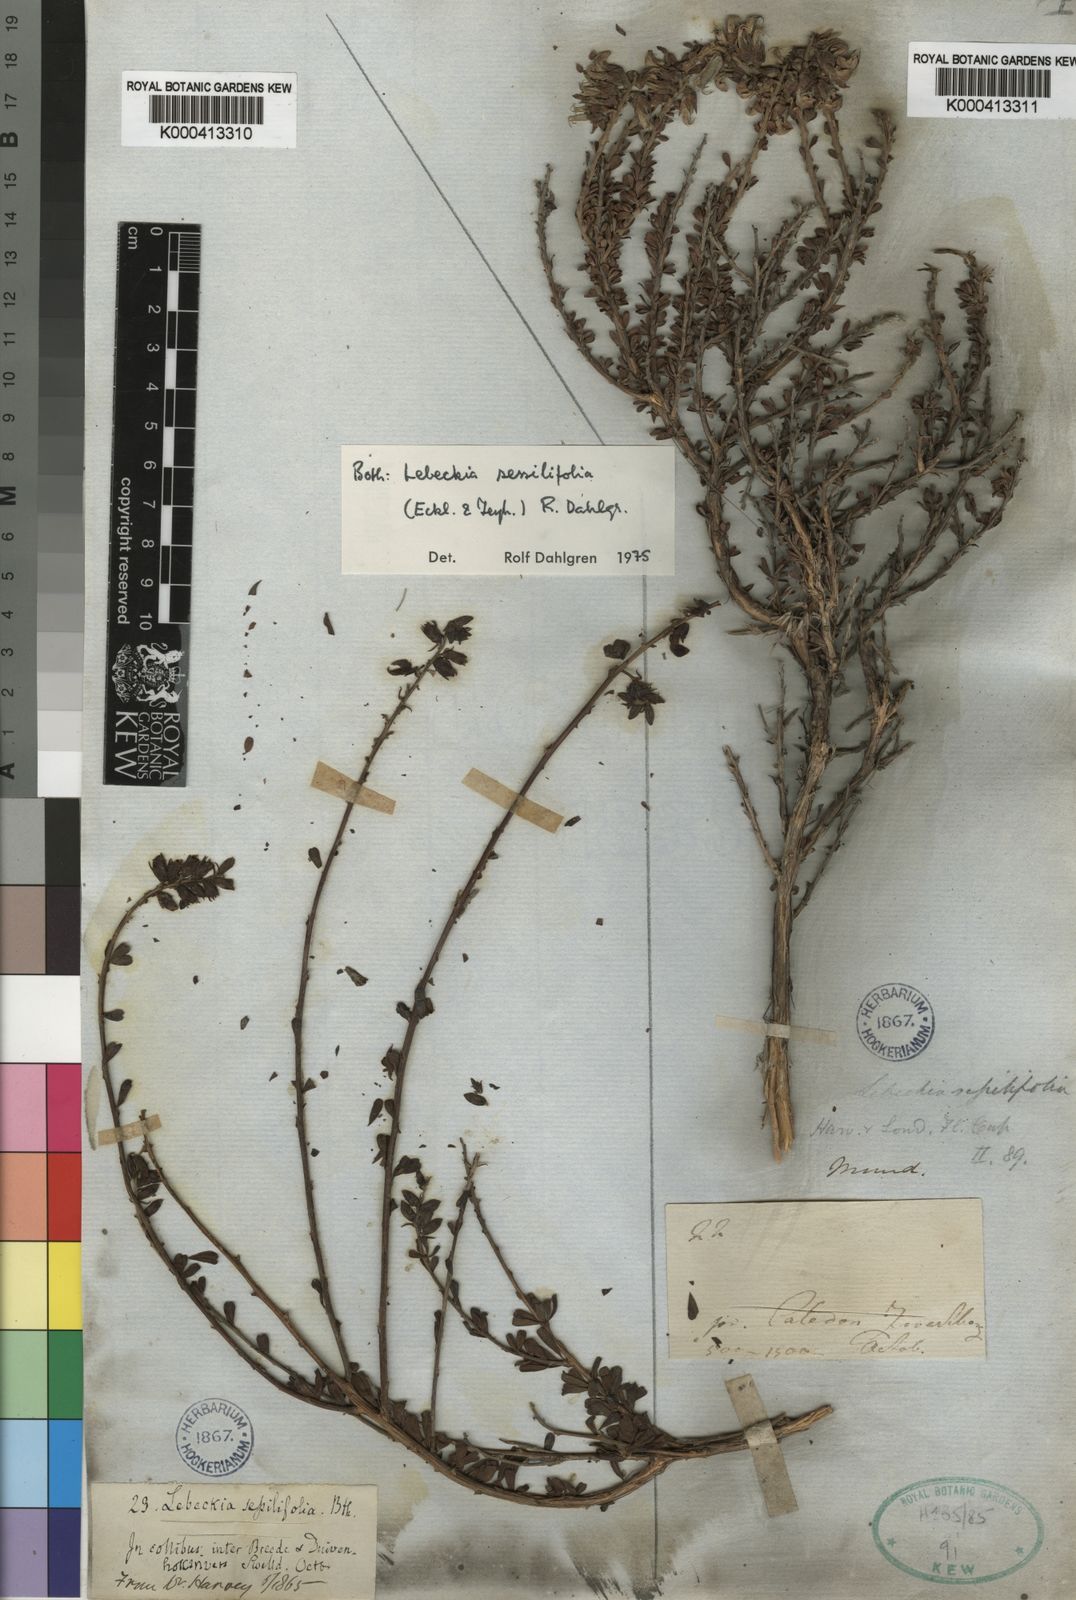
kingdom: Plantae
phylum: Tracheophyta
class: Magnoliopsida
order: Fabales
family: Fabaceae
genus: Lebeckia
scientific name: Lebeckia
